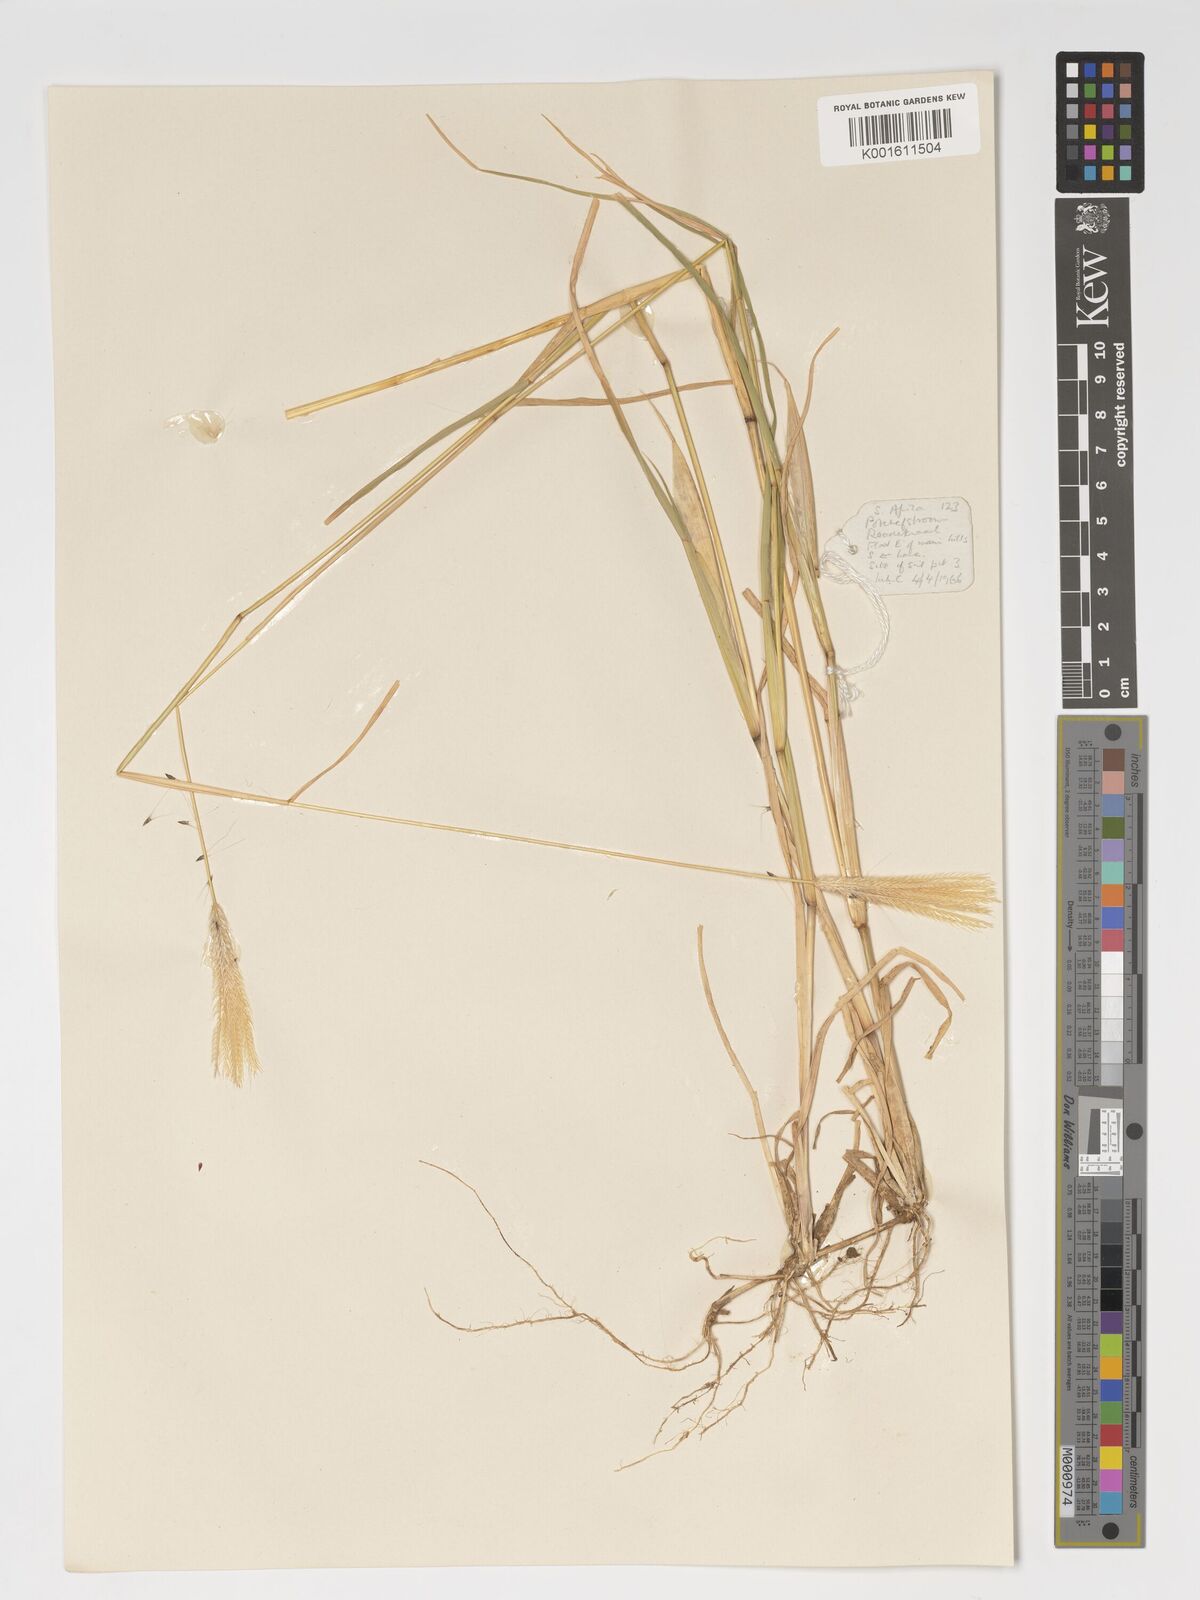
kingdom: Plantae
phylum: Tracheophyta
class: Liliopsida
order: Poales
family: Poaceae
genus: Chloris
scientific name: Chloris virgata
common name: Feathery rhodes-grass
